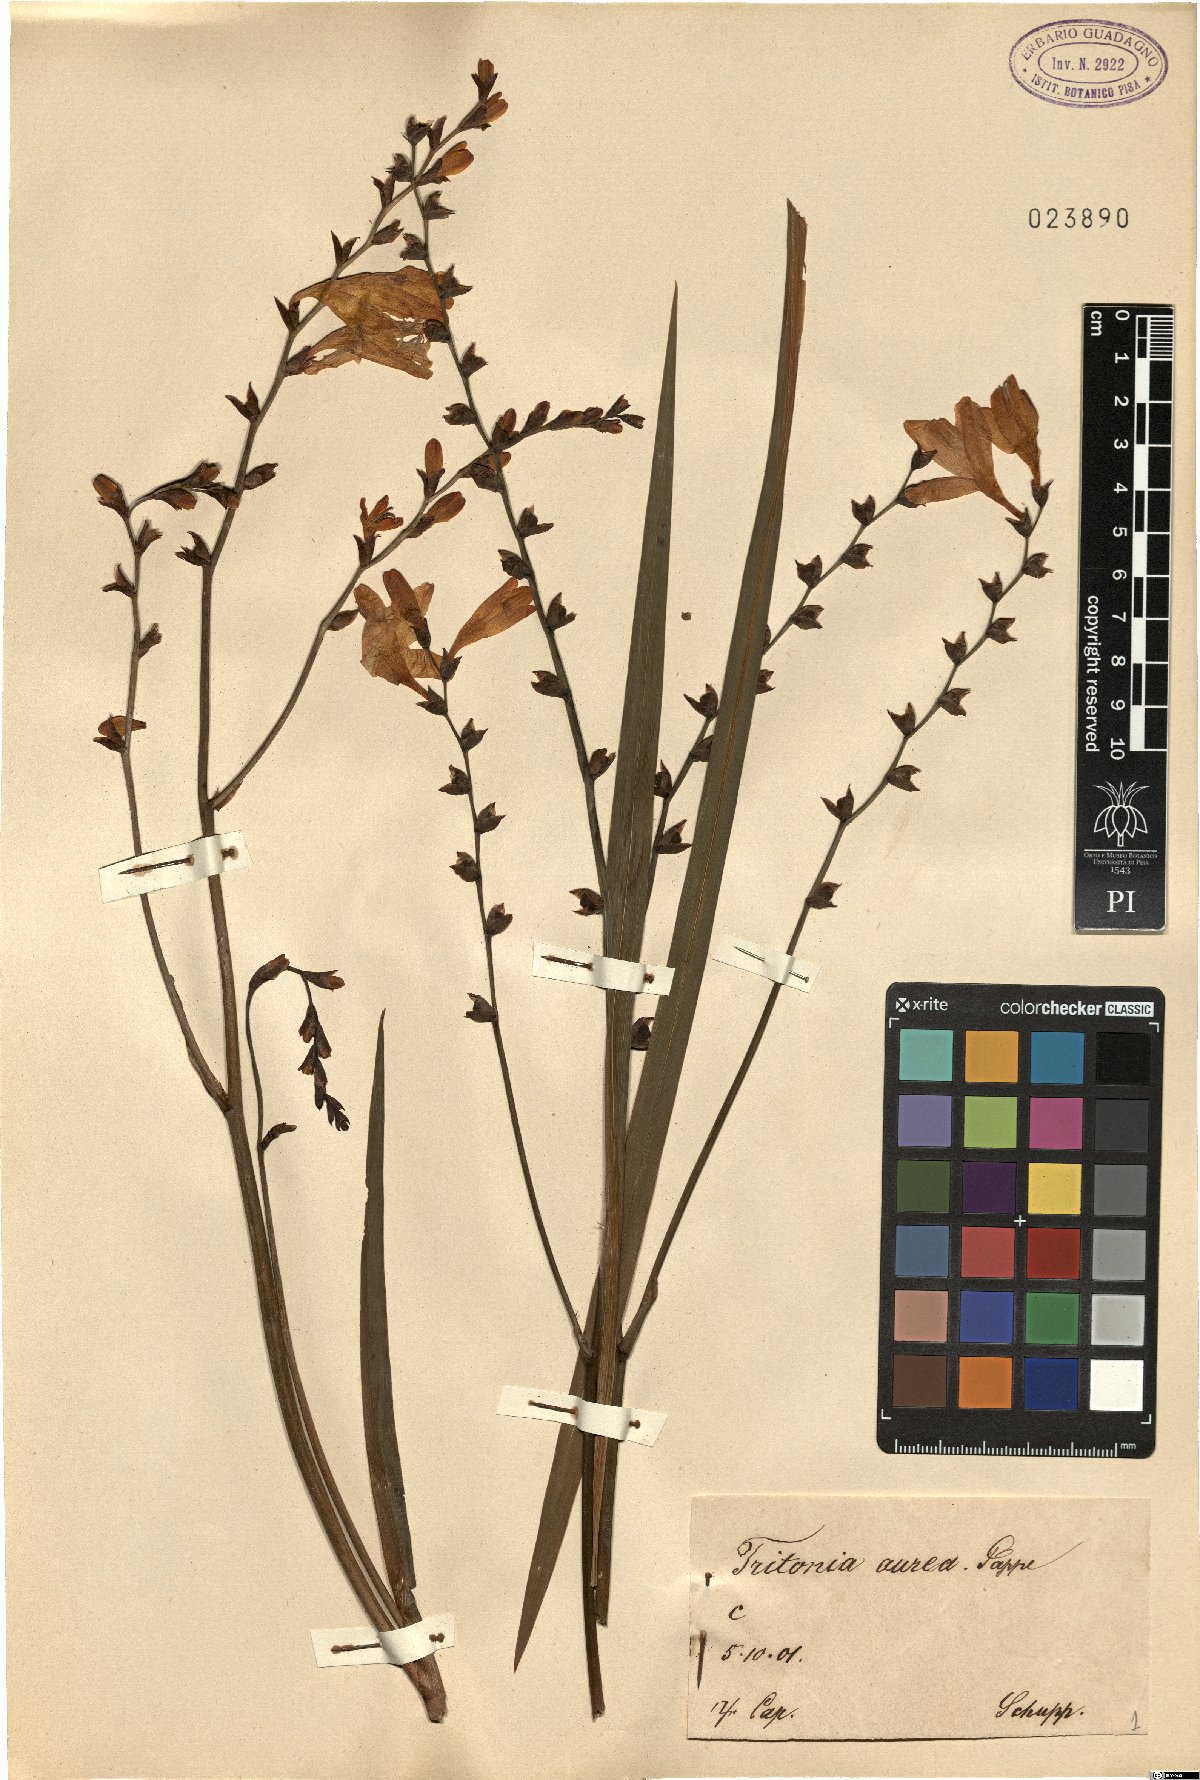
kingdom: Plantae
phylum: Tracheophyta
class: Liliopsida
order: Asparagales
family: Iridaceae
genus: Crocosmia
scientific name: Crocosmia aurea
